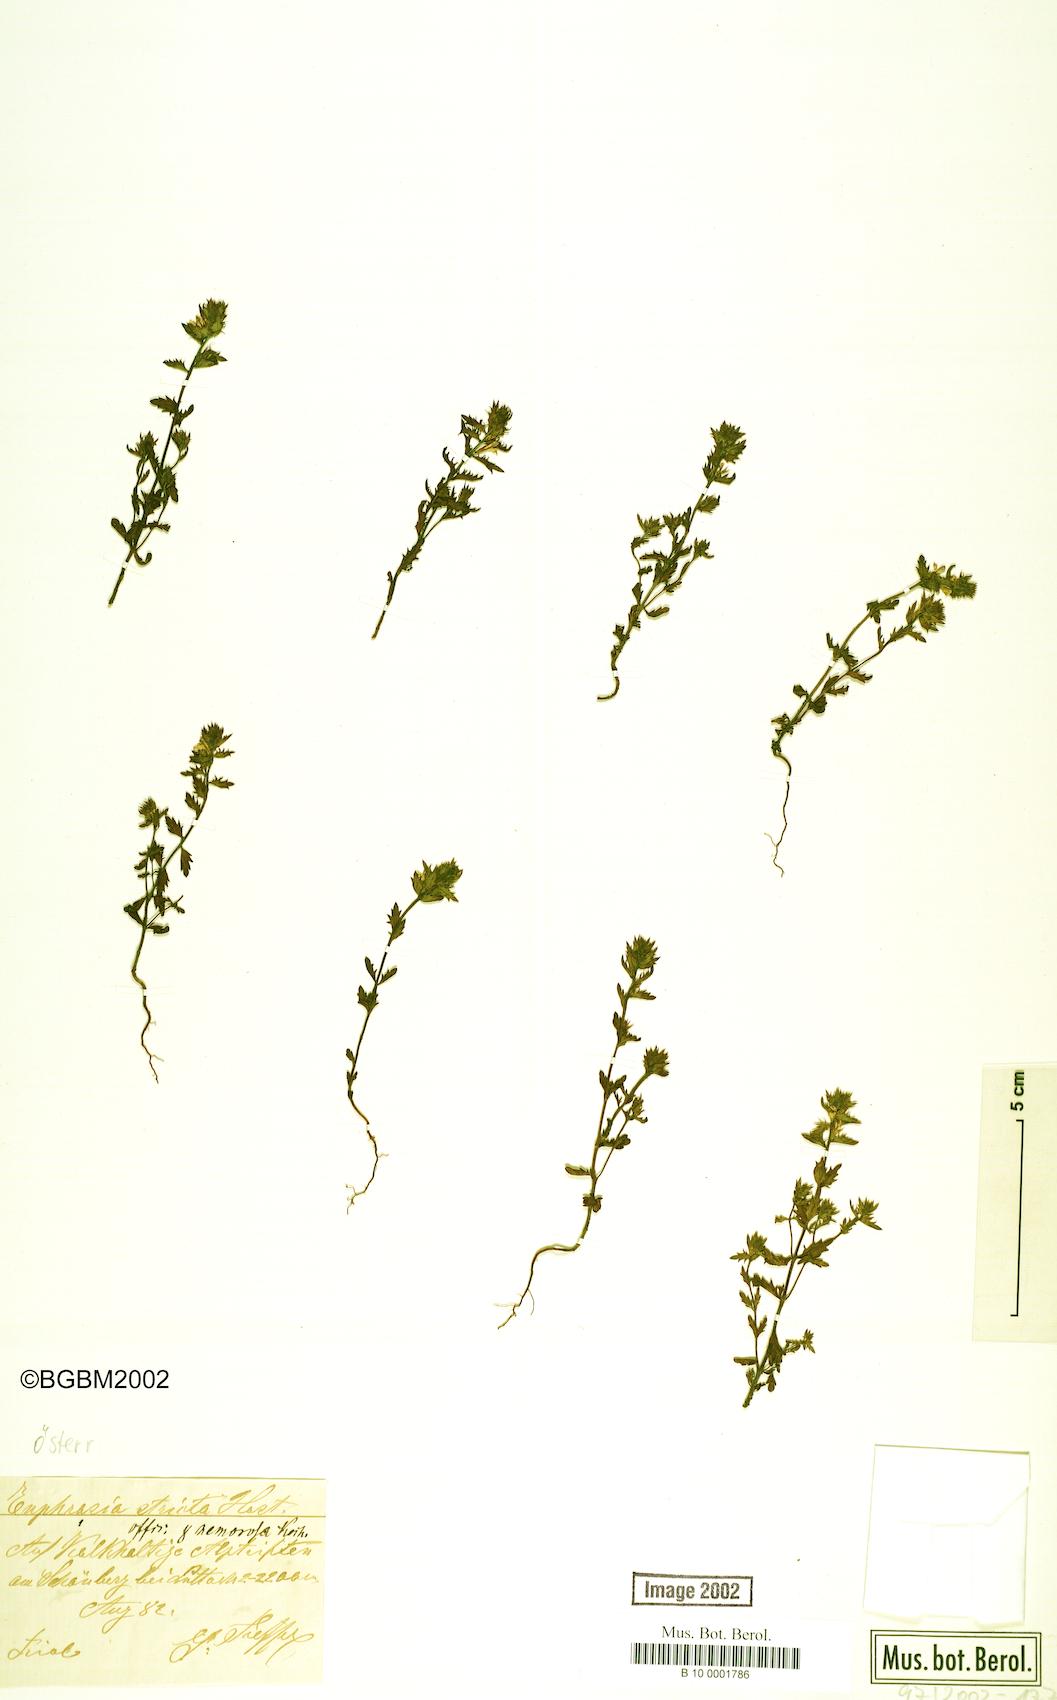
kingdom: Plantae
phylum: Tracheophyta
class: Magnoliopsida
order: Lamiales
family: Orobanchaceae
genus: Euphrasia
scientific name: Euphrasia stricta
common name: Drug eyebright
